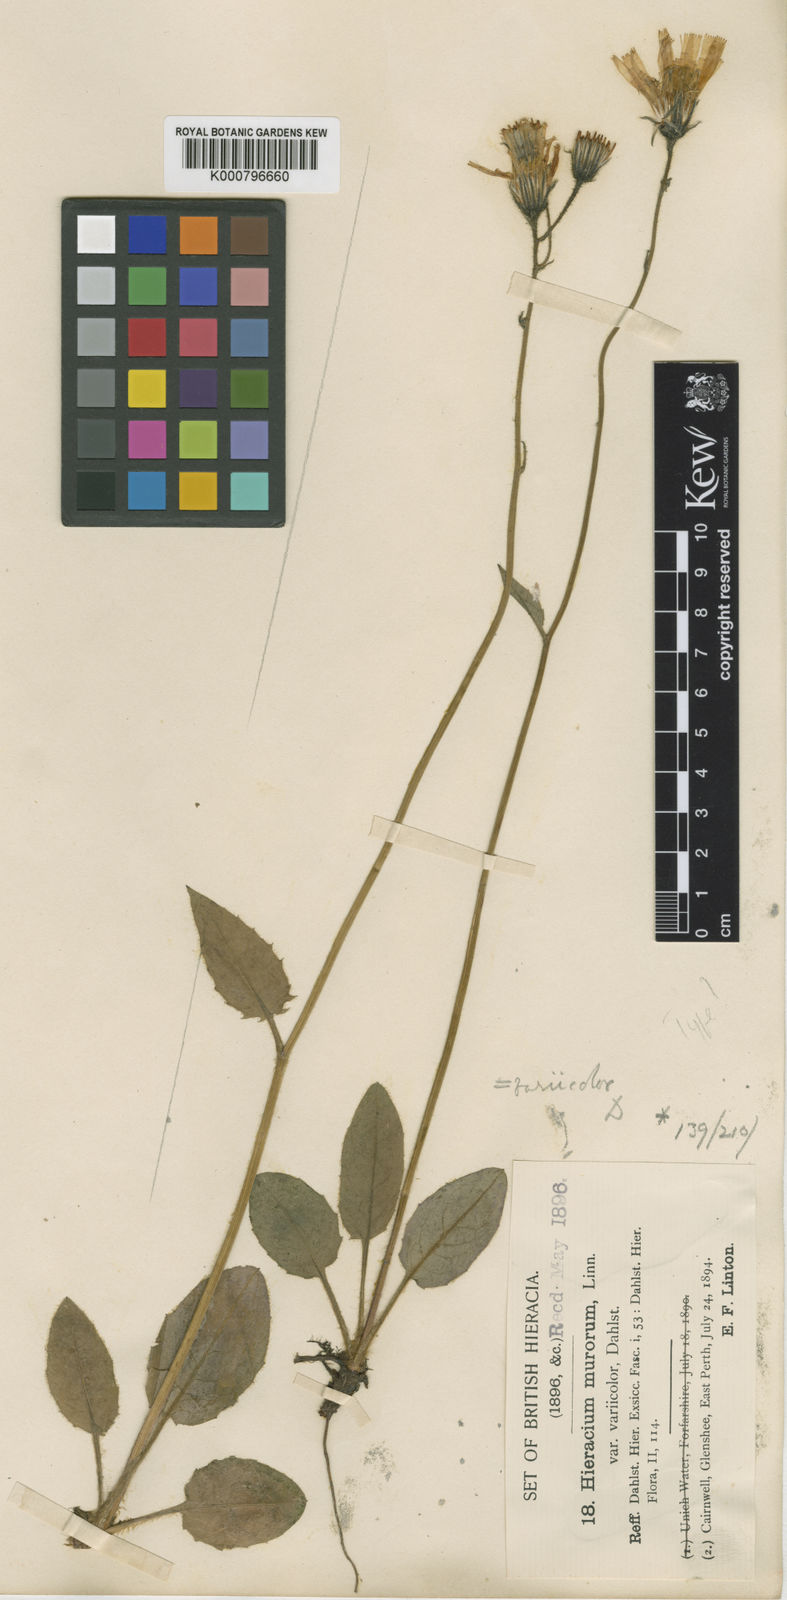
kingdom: Plantae
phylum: Tracheophyta
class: Magnoliopsida
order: Asterales
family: Asteraceae
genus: Hieracium
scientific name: Hieracium variicolor
